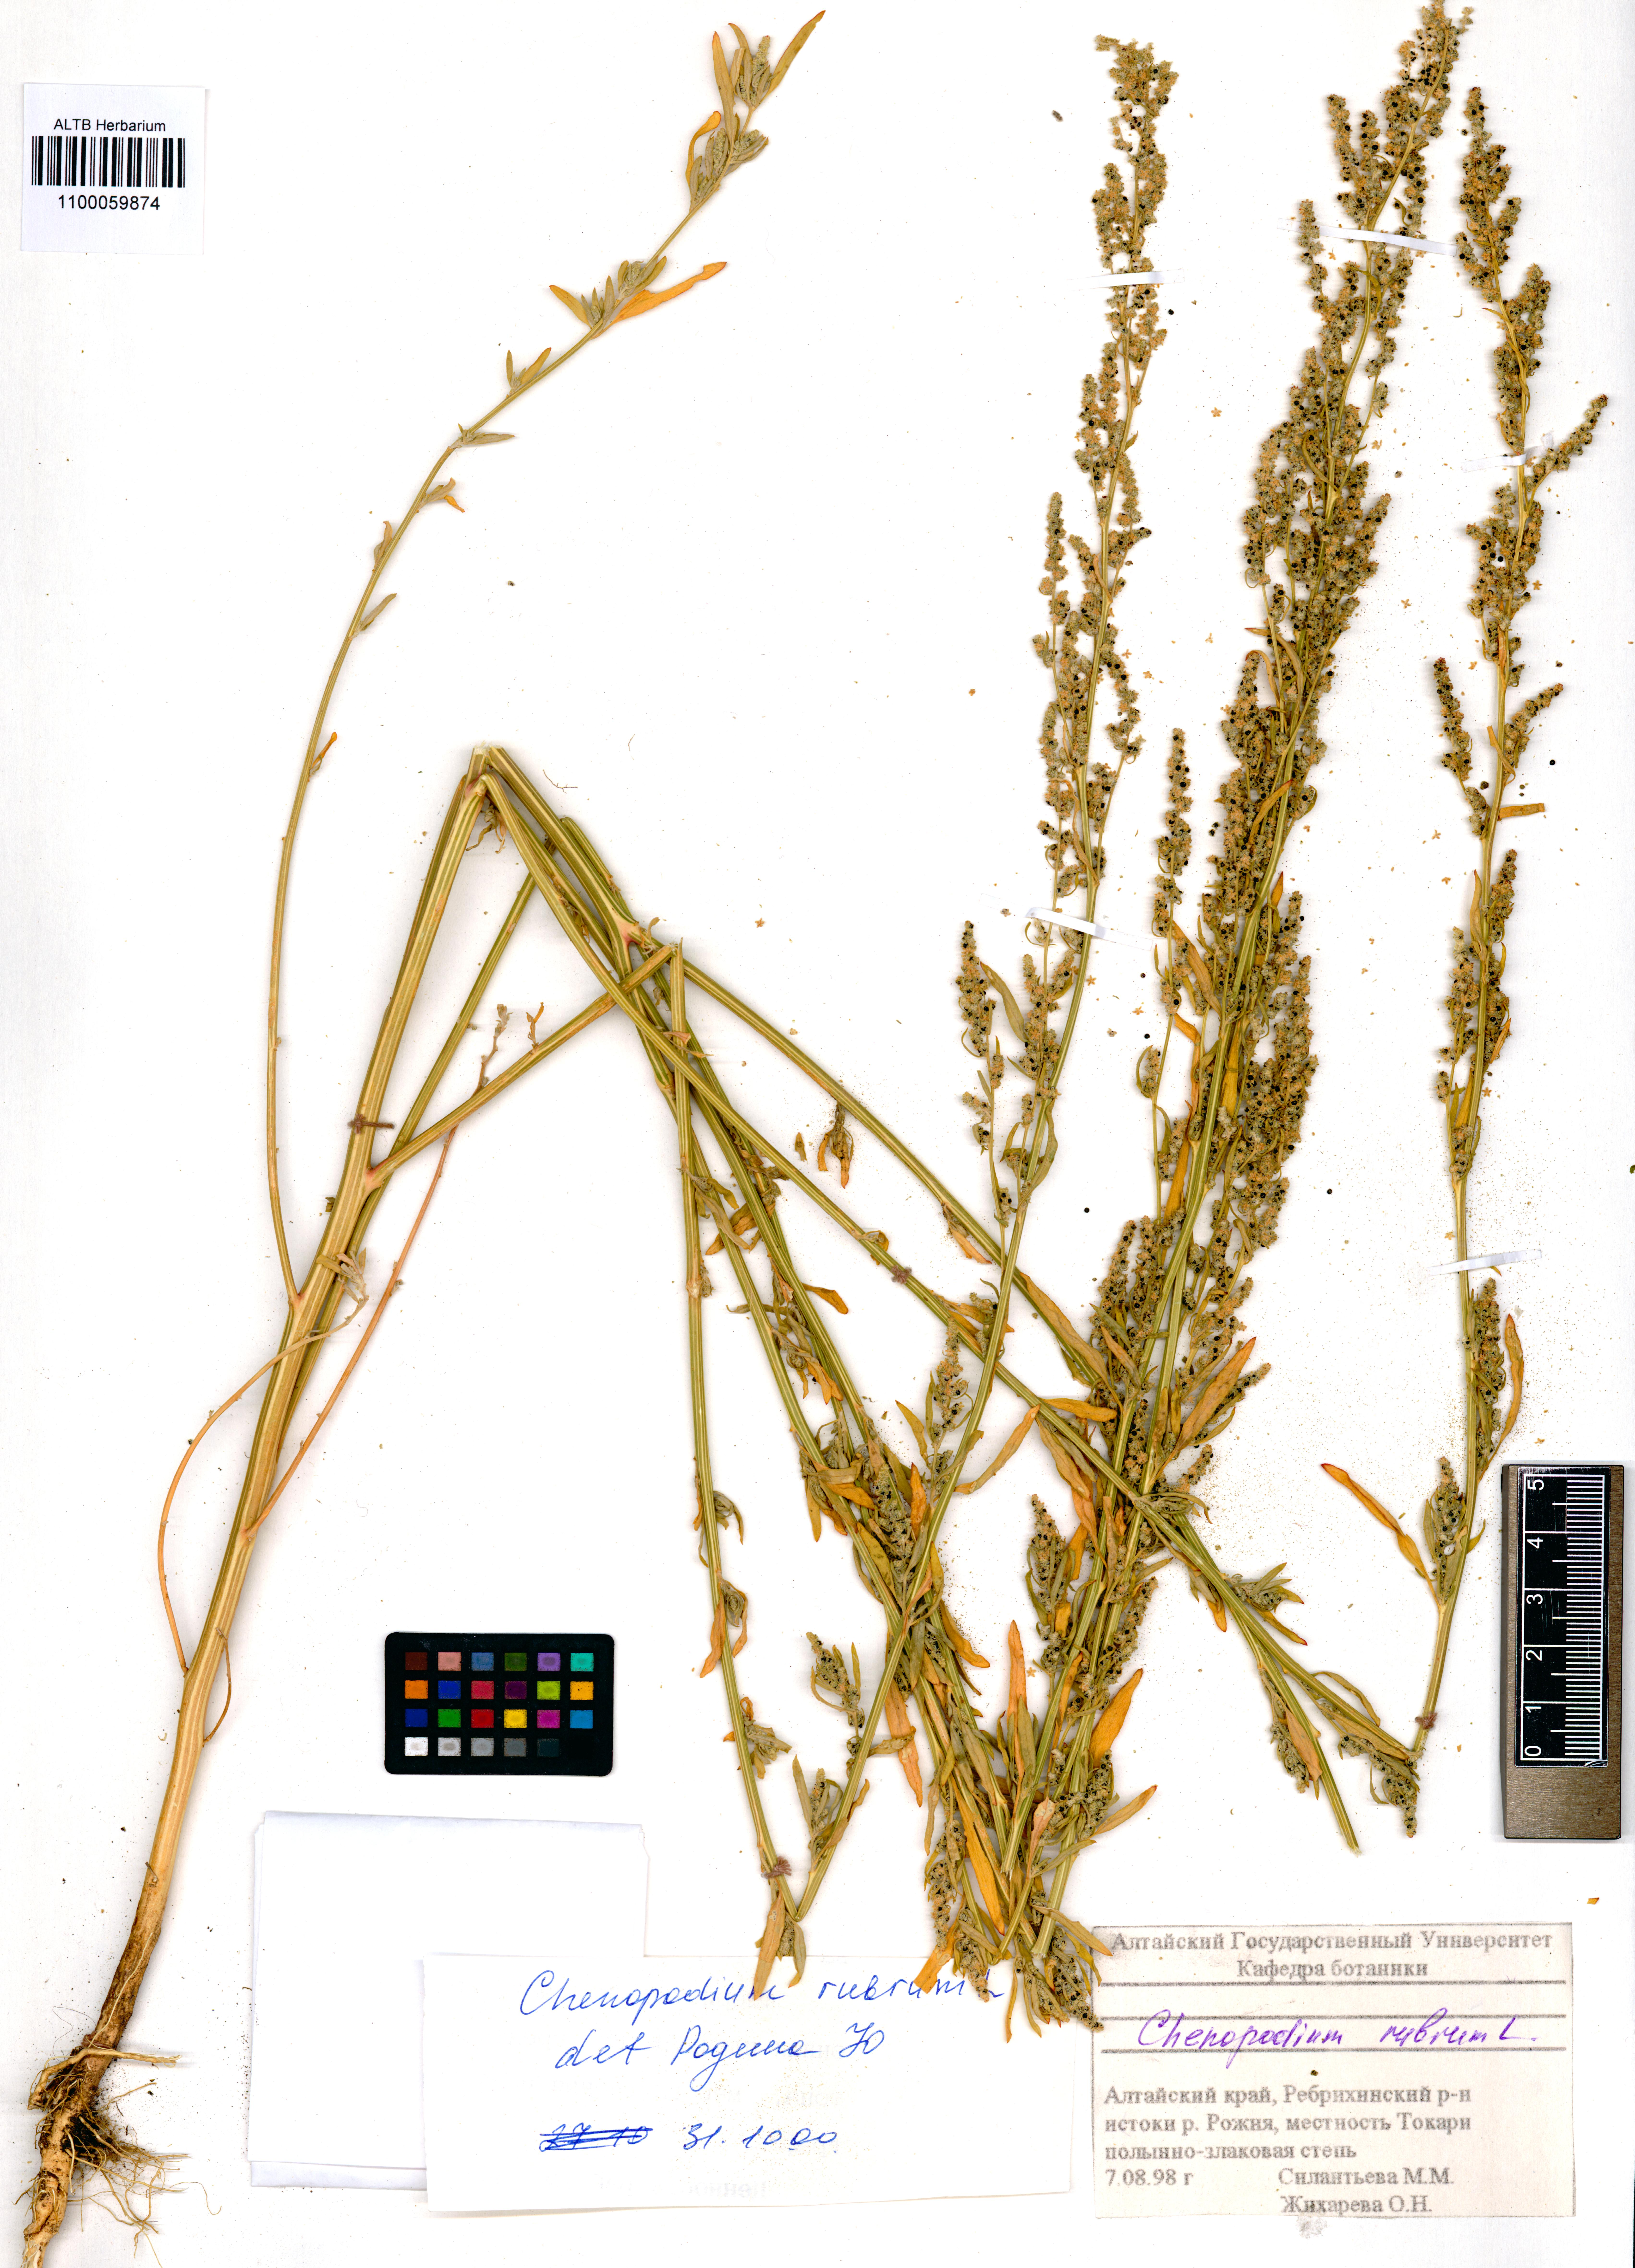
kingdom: Plantae
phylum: Tracheophyta
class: Magnoliopsida
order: Caryophyllales
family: Amaranthaceae
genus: Oxybasis
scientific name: Oxybasis rubra
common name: Red goosefoot
